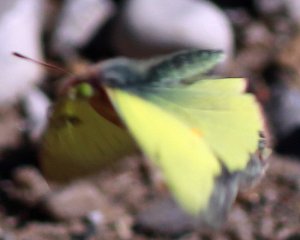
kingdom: Animalia
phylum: Arthropoda
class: Insecta
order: Lepidoptera
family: Pieridae
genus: Colias
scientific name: Colias philodice
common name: Clouded Sulphur
